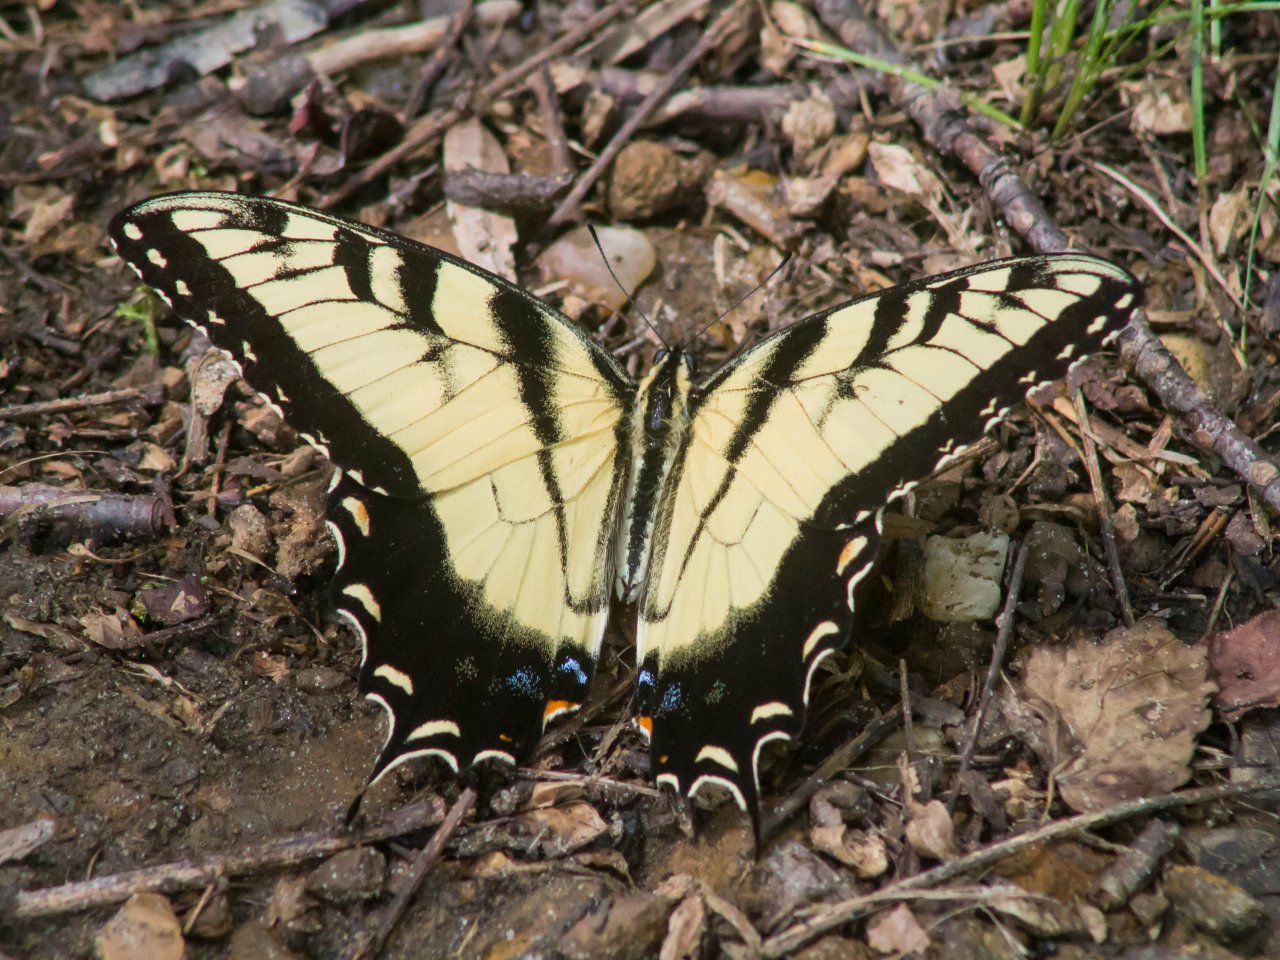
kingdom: Animalia
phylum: Arthropoda
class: Insecta
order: Lepidoptera
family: Papilionidae
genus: Pterourus
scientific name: Pterourus glaucus
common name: Eastern Tiger Swallowtail
